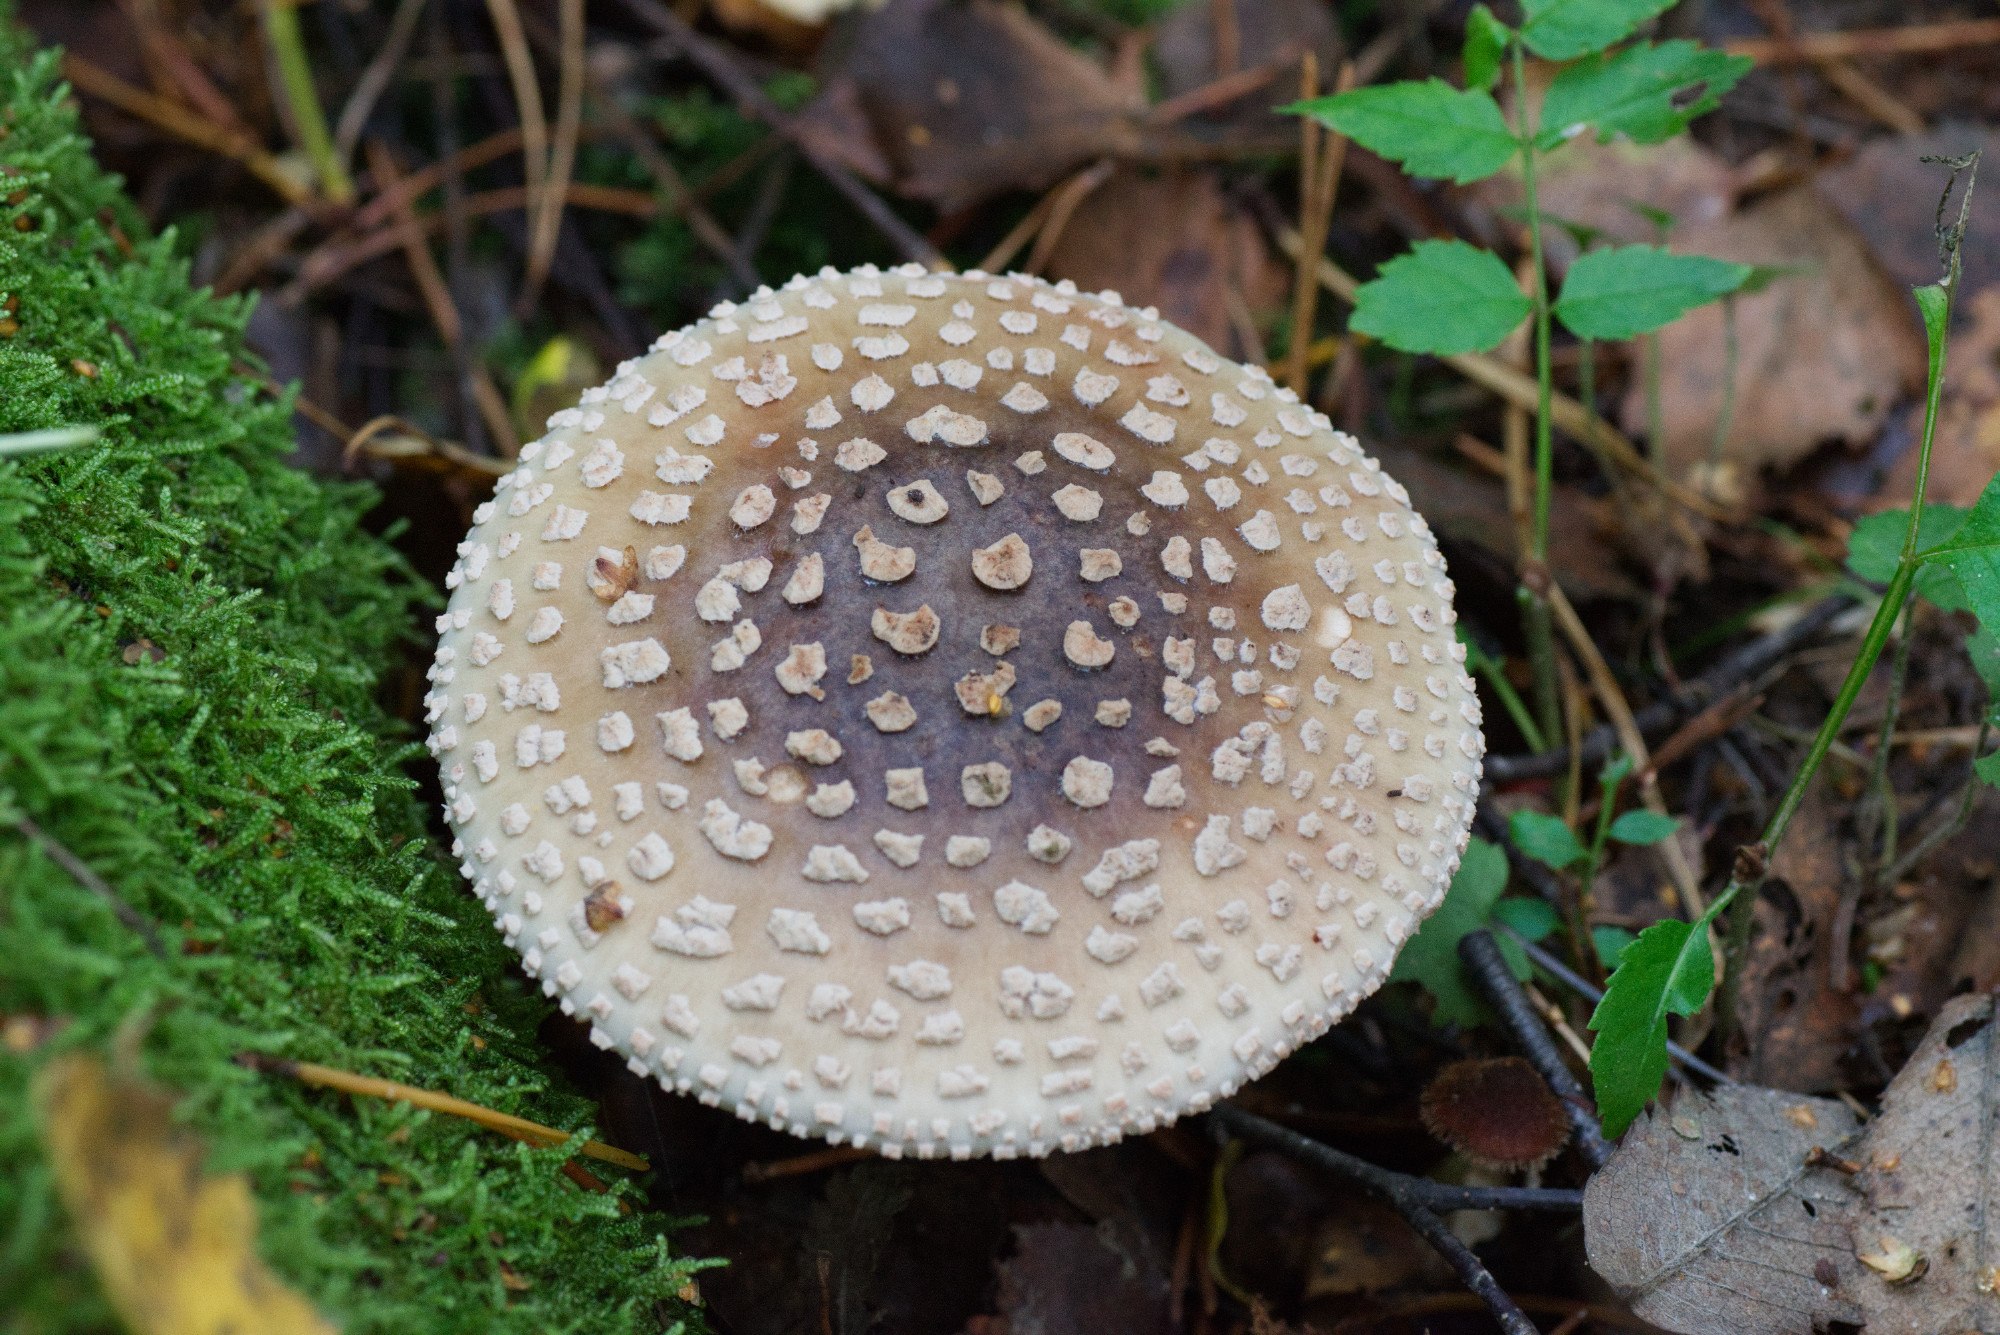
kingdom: Fungi
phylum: Basidiomycota
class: Agaricomycetes
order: Agaricales
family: Amanitaceae
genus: Amanita
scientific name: Amanita
